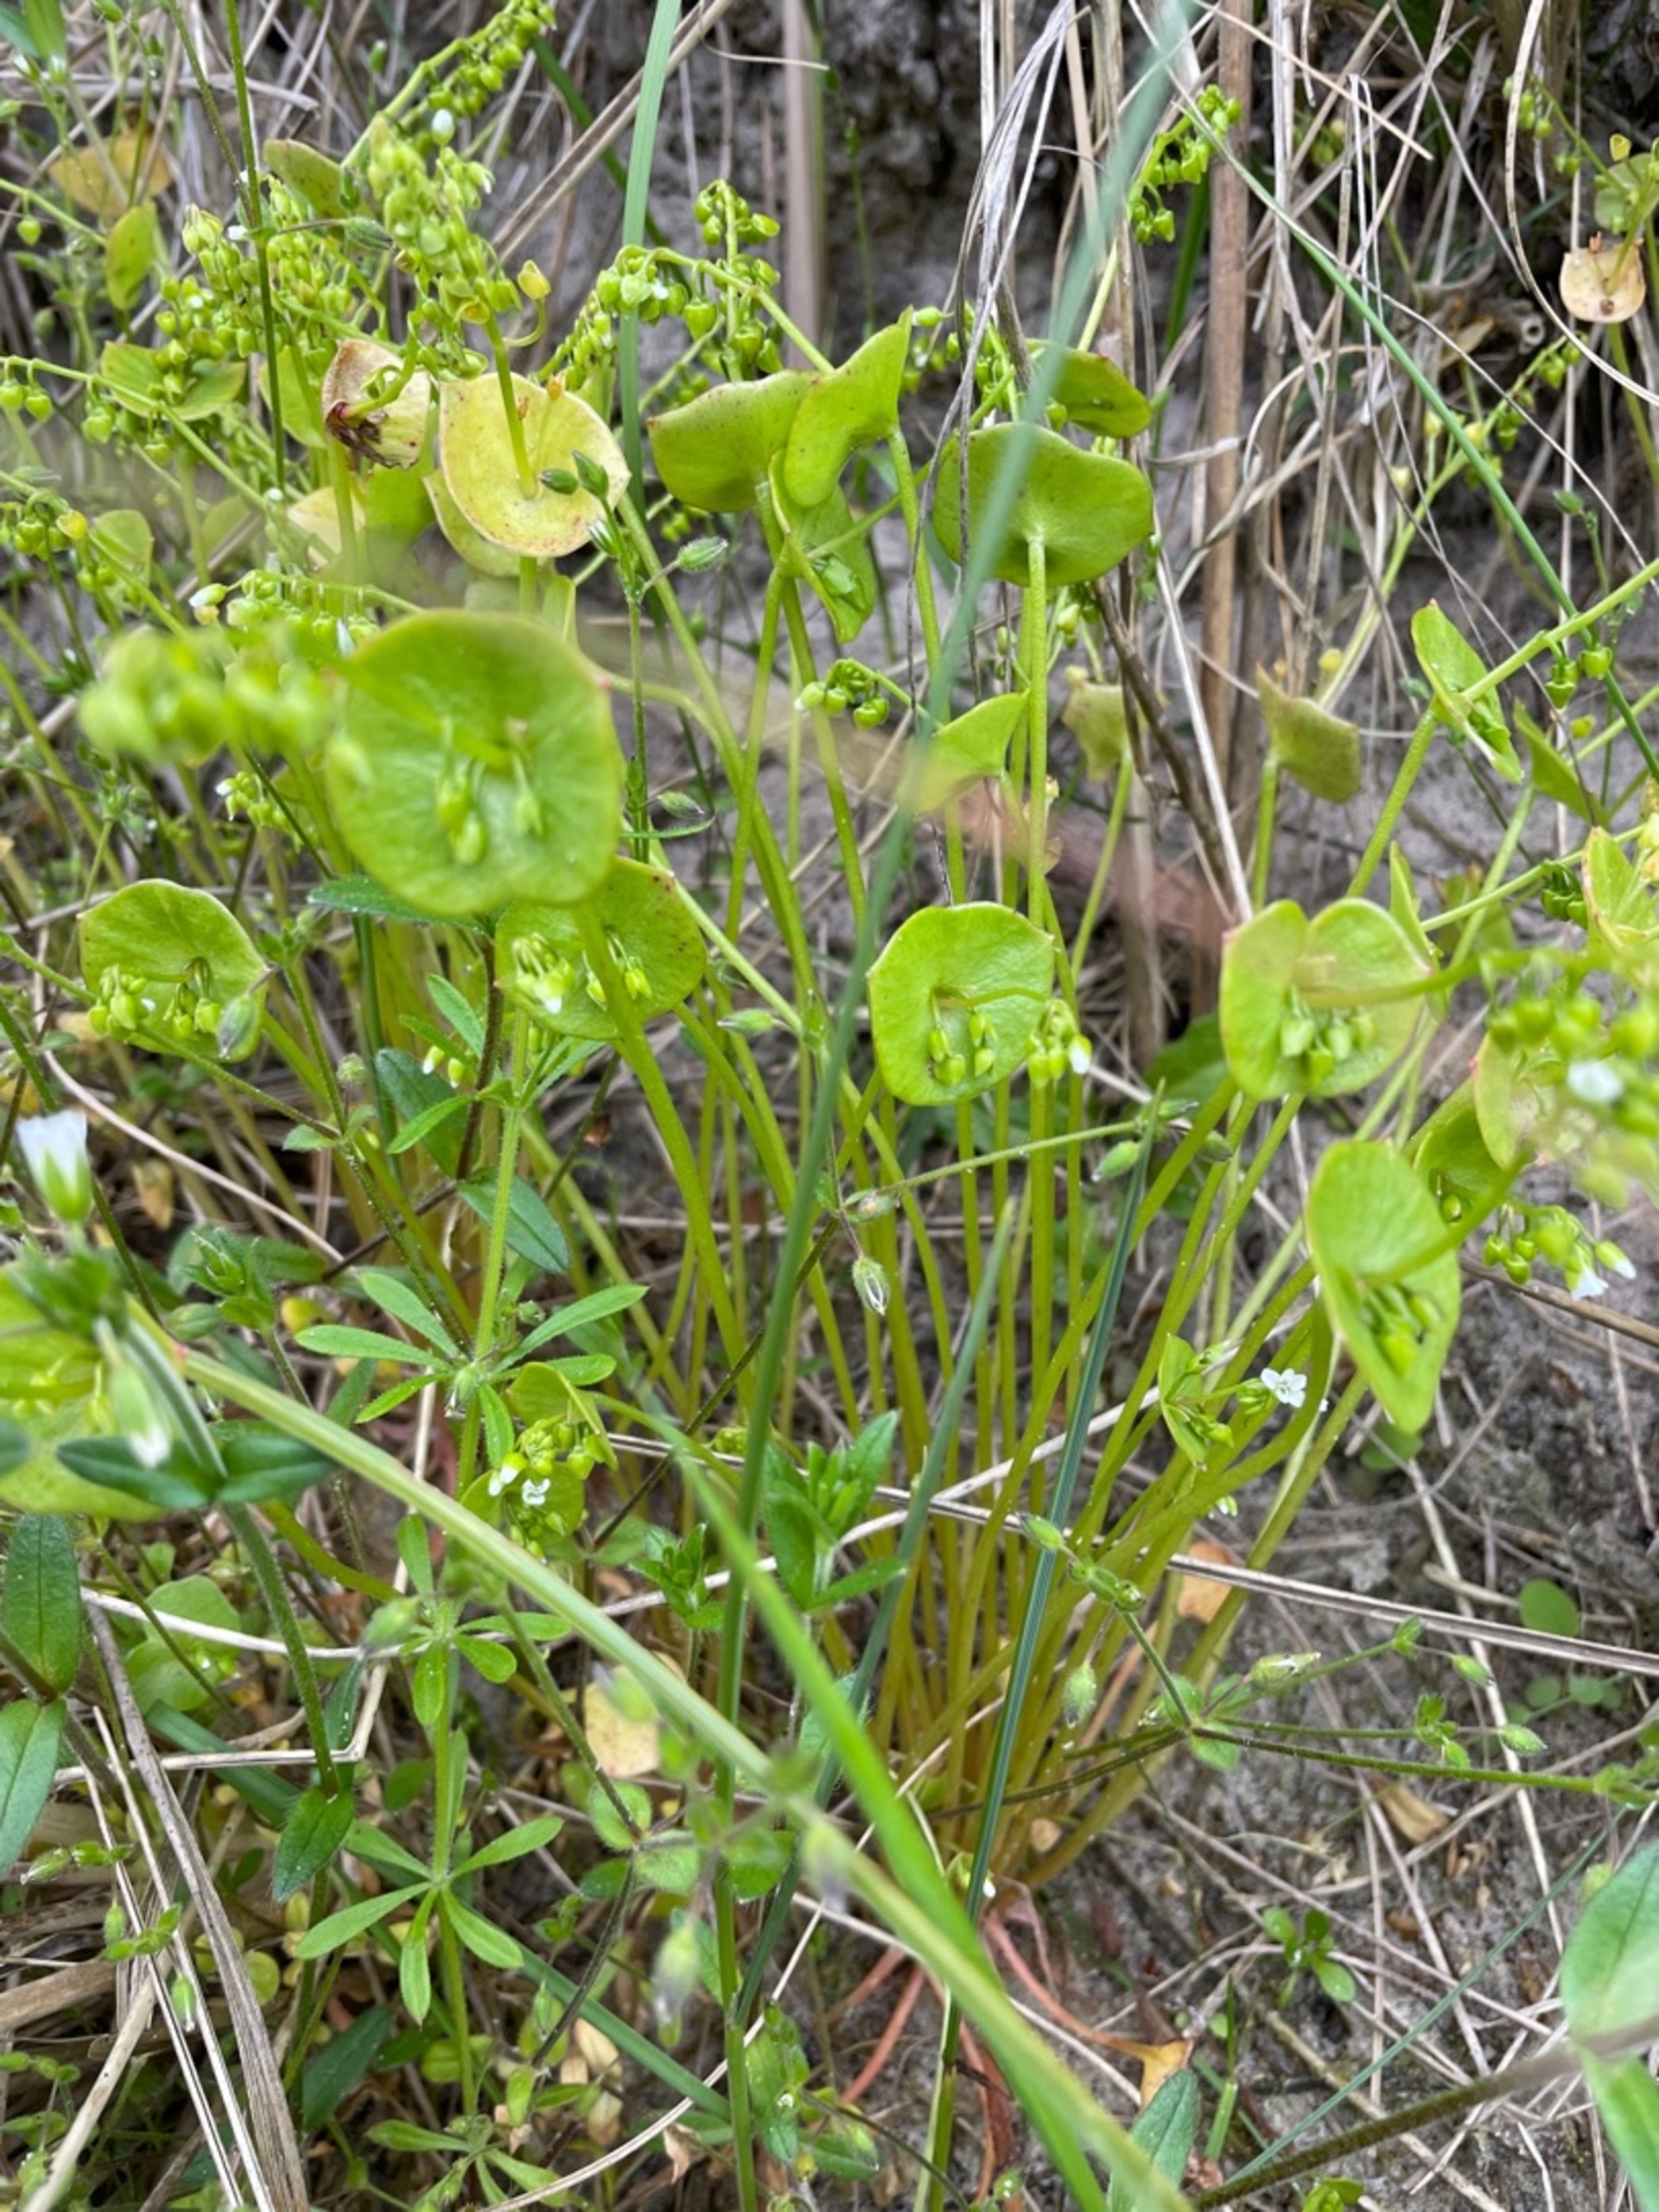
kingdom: Plantae
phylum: Tracheophyta
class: Magnoliopsida
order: Caryophyllales
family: Montiaceae
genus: Claytonia
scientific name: Claytonia perfoliata
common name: Spiselig vinterportulak
